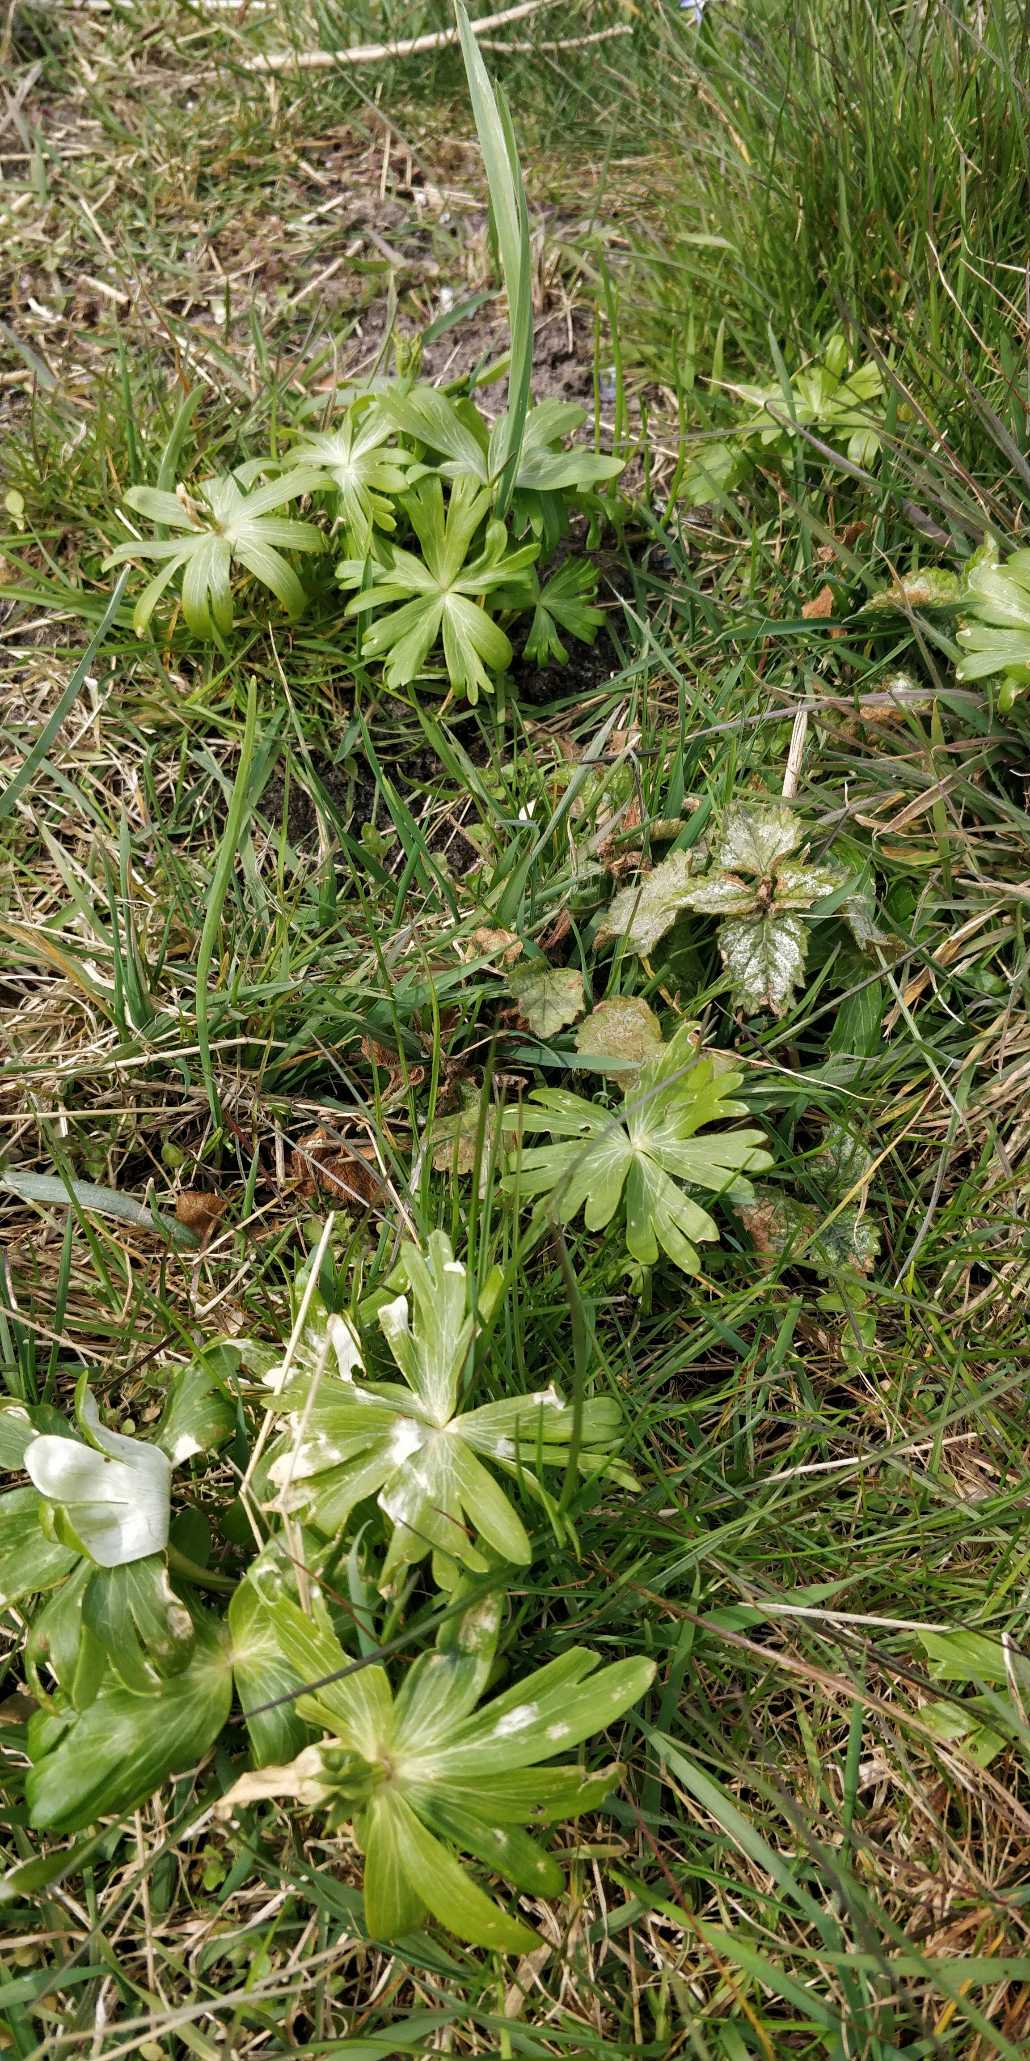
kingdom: Plantae
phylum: Tracheophyta
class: Magnoliopsida
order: Ranunculales
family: Ranunculaceae
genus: Eranthis
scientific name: Eranthis hyemalis
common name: Erantis
